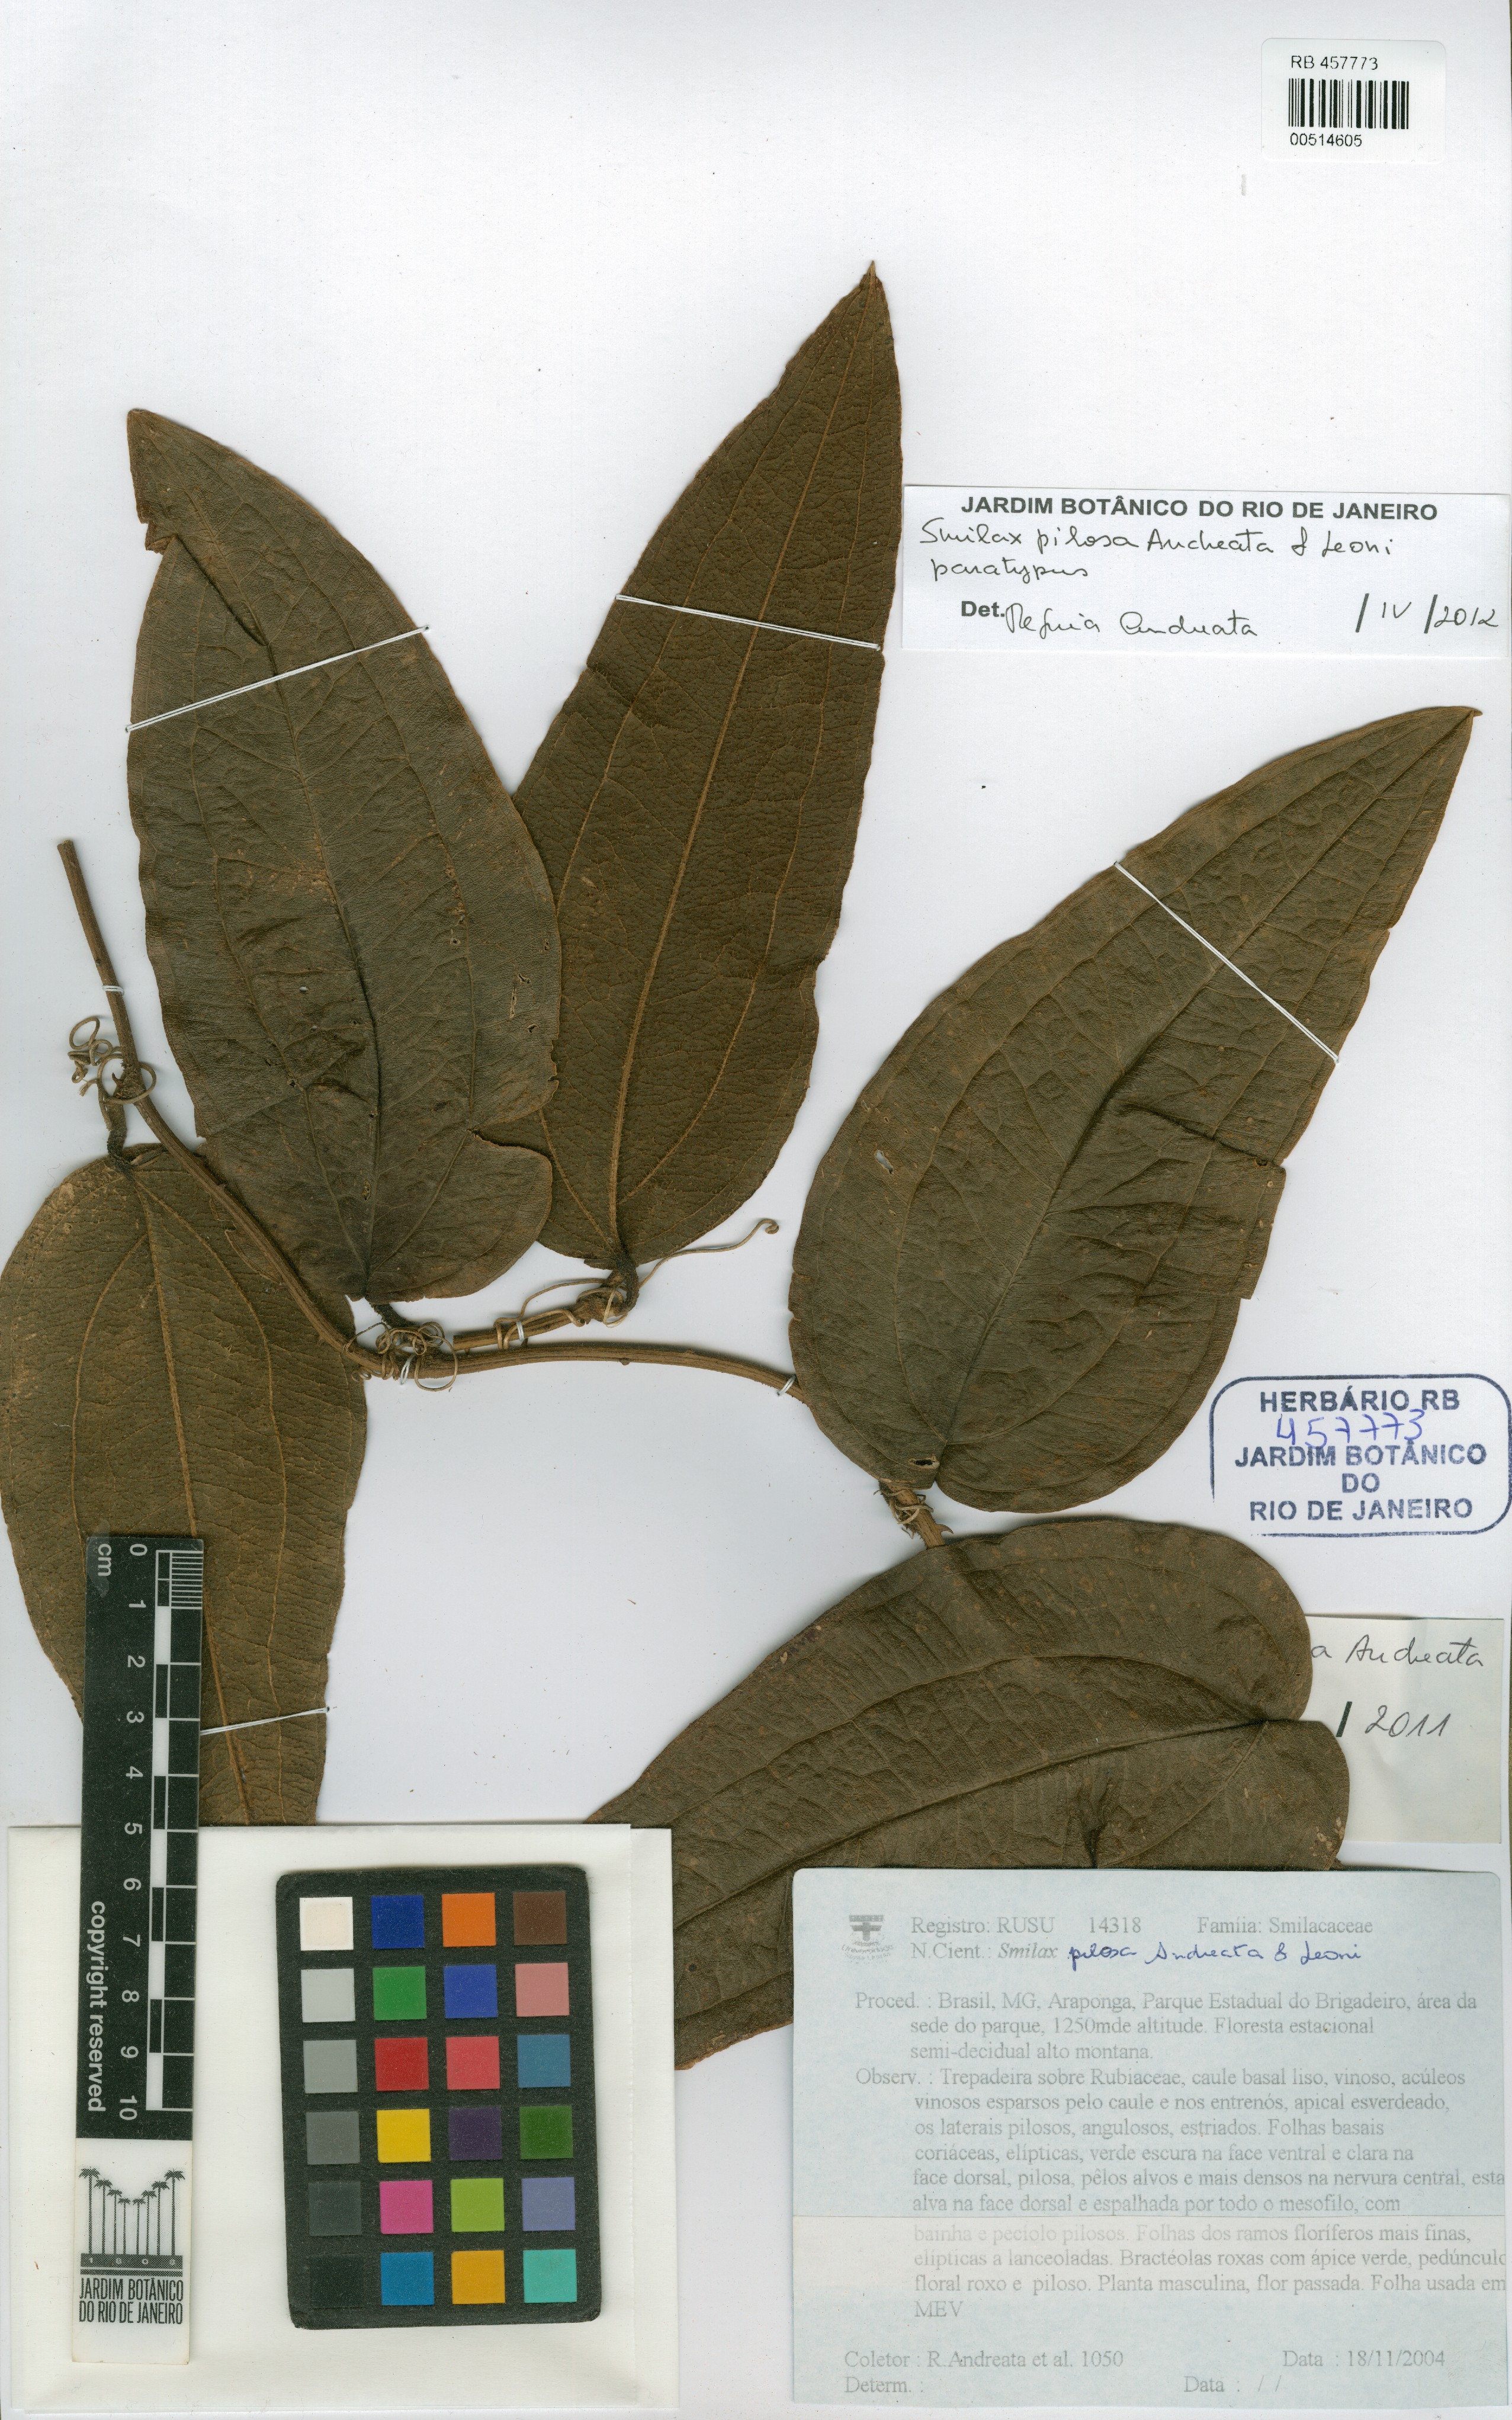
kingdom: Plantae
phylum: Tracheophyta
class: Liliopsida
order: Liliales
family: Smilacaceae
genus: Smilax
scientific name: Smilax pilosa
